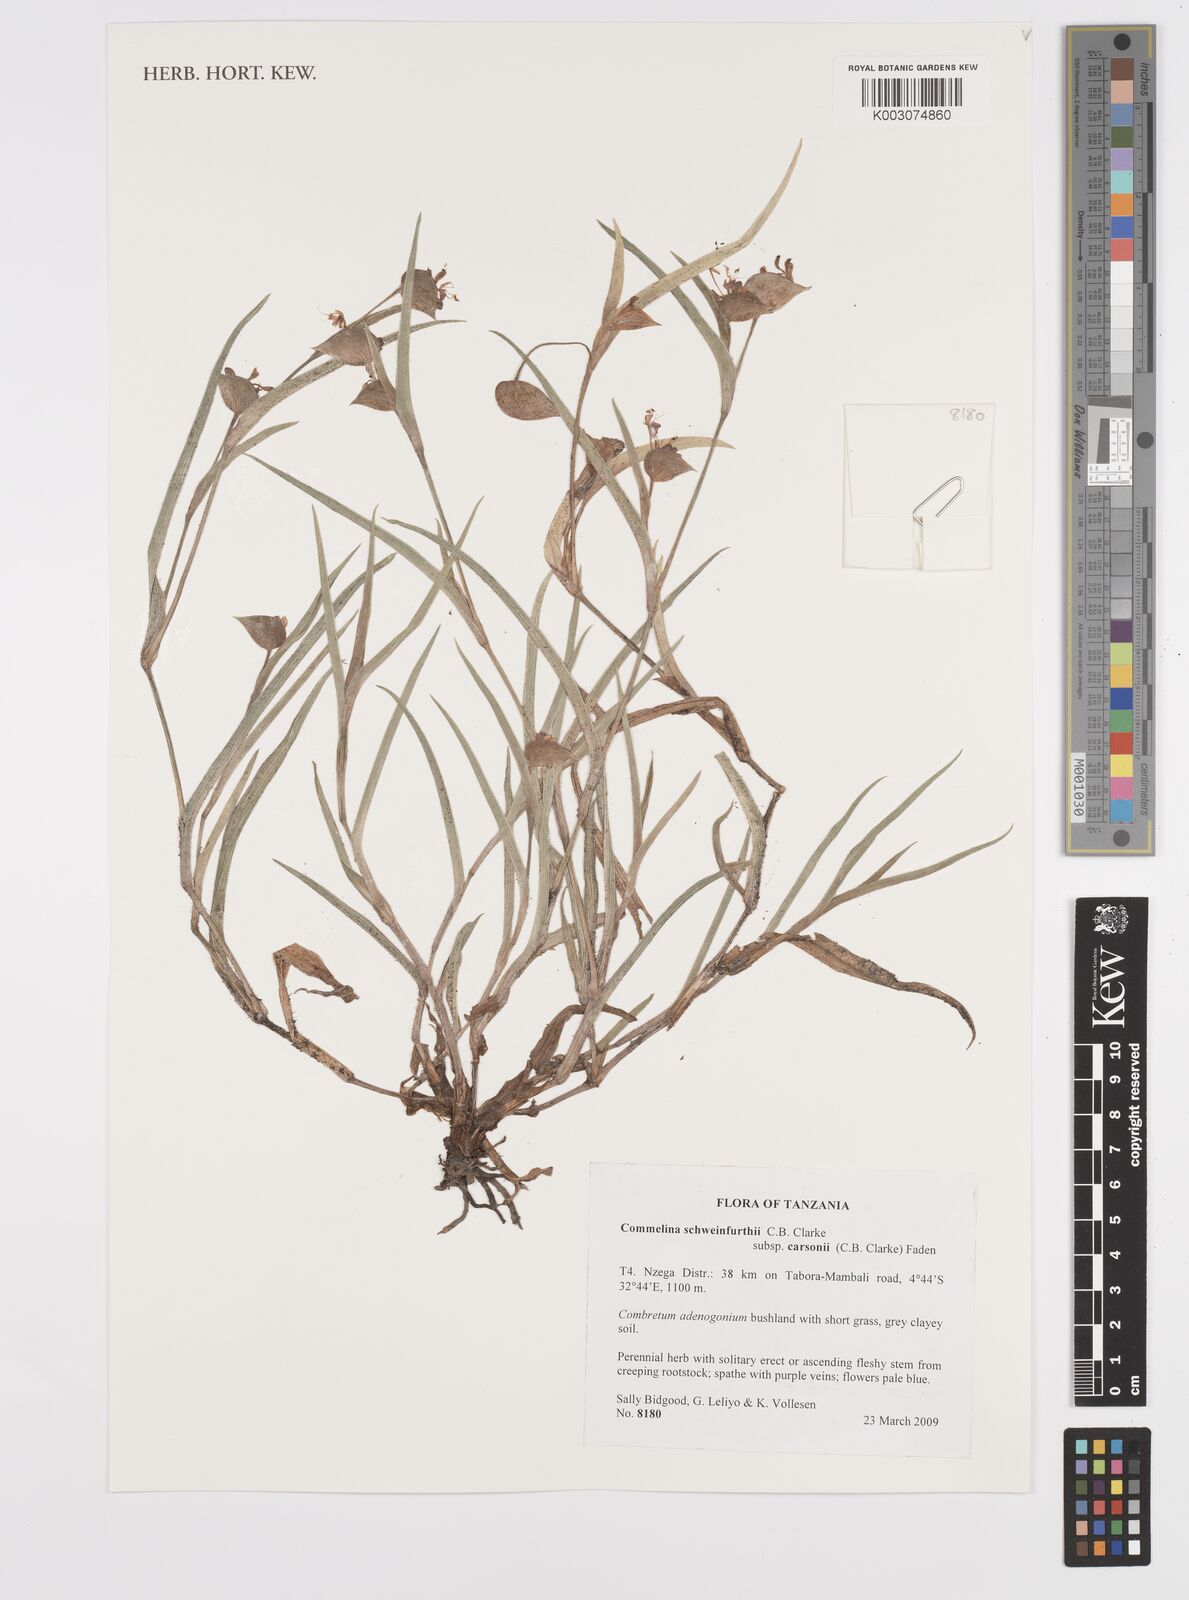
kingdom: Plantae
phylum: Tracheophyta
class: Liliopsida
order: Commelinales
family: Commelinaceae
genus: Commelina
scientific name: Commelina schweinfurthii
